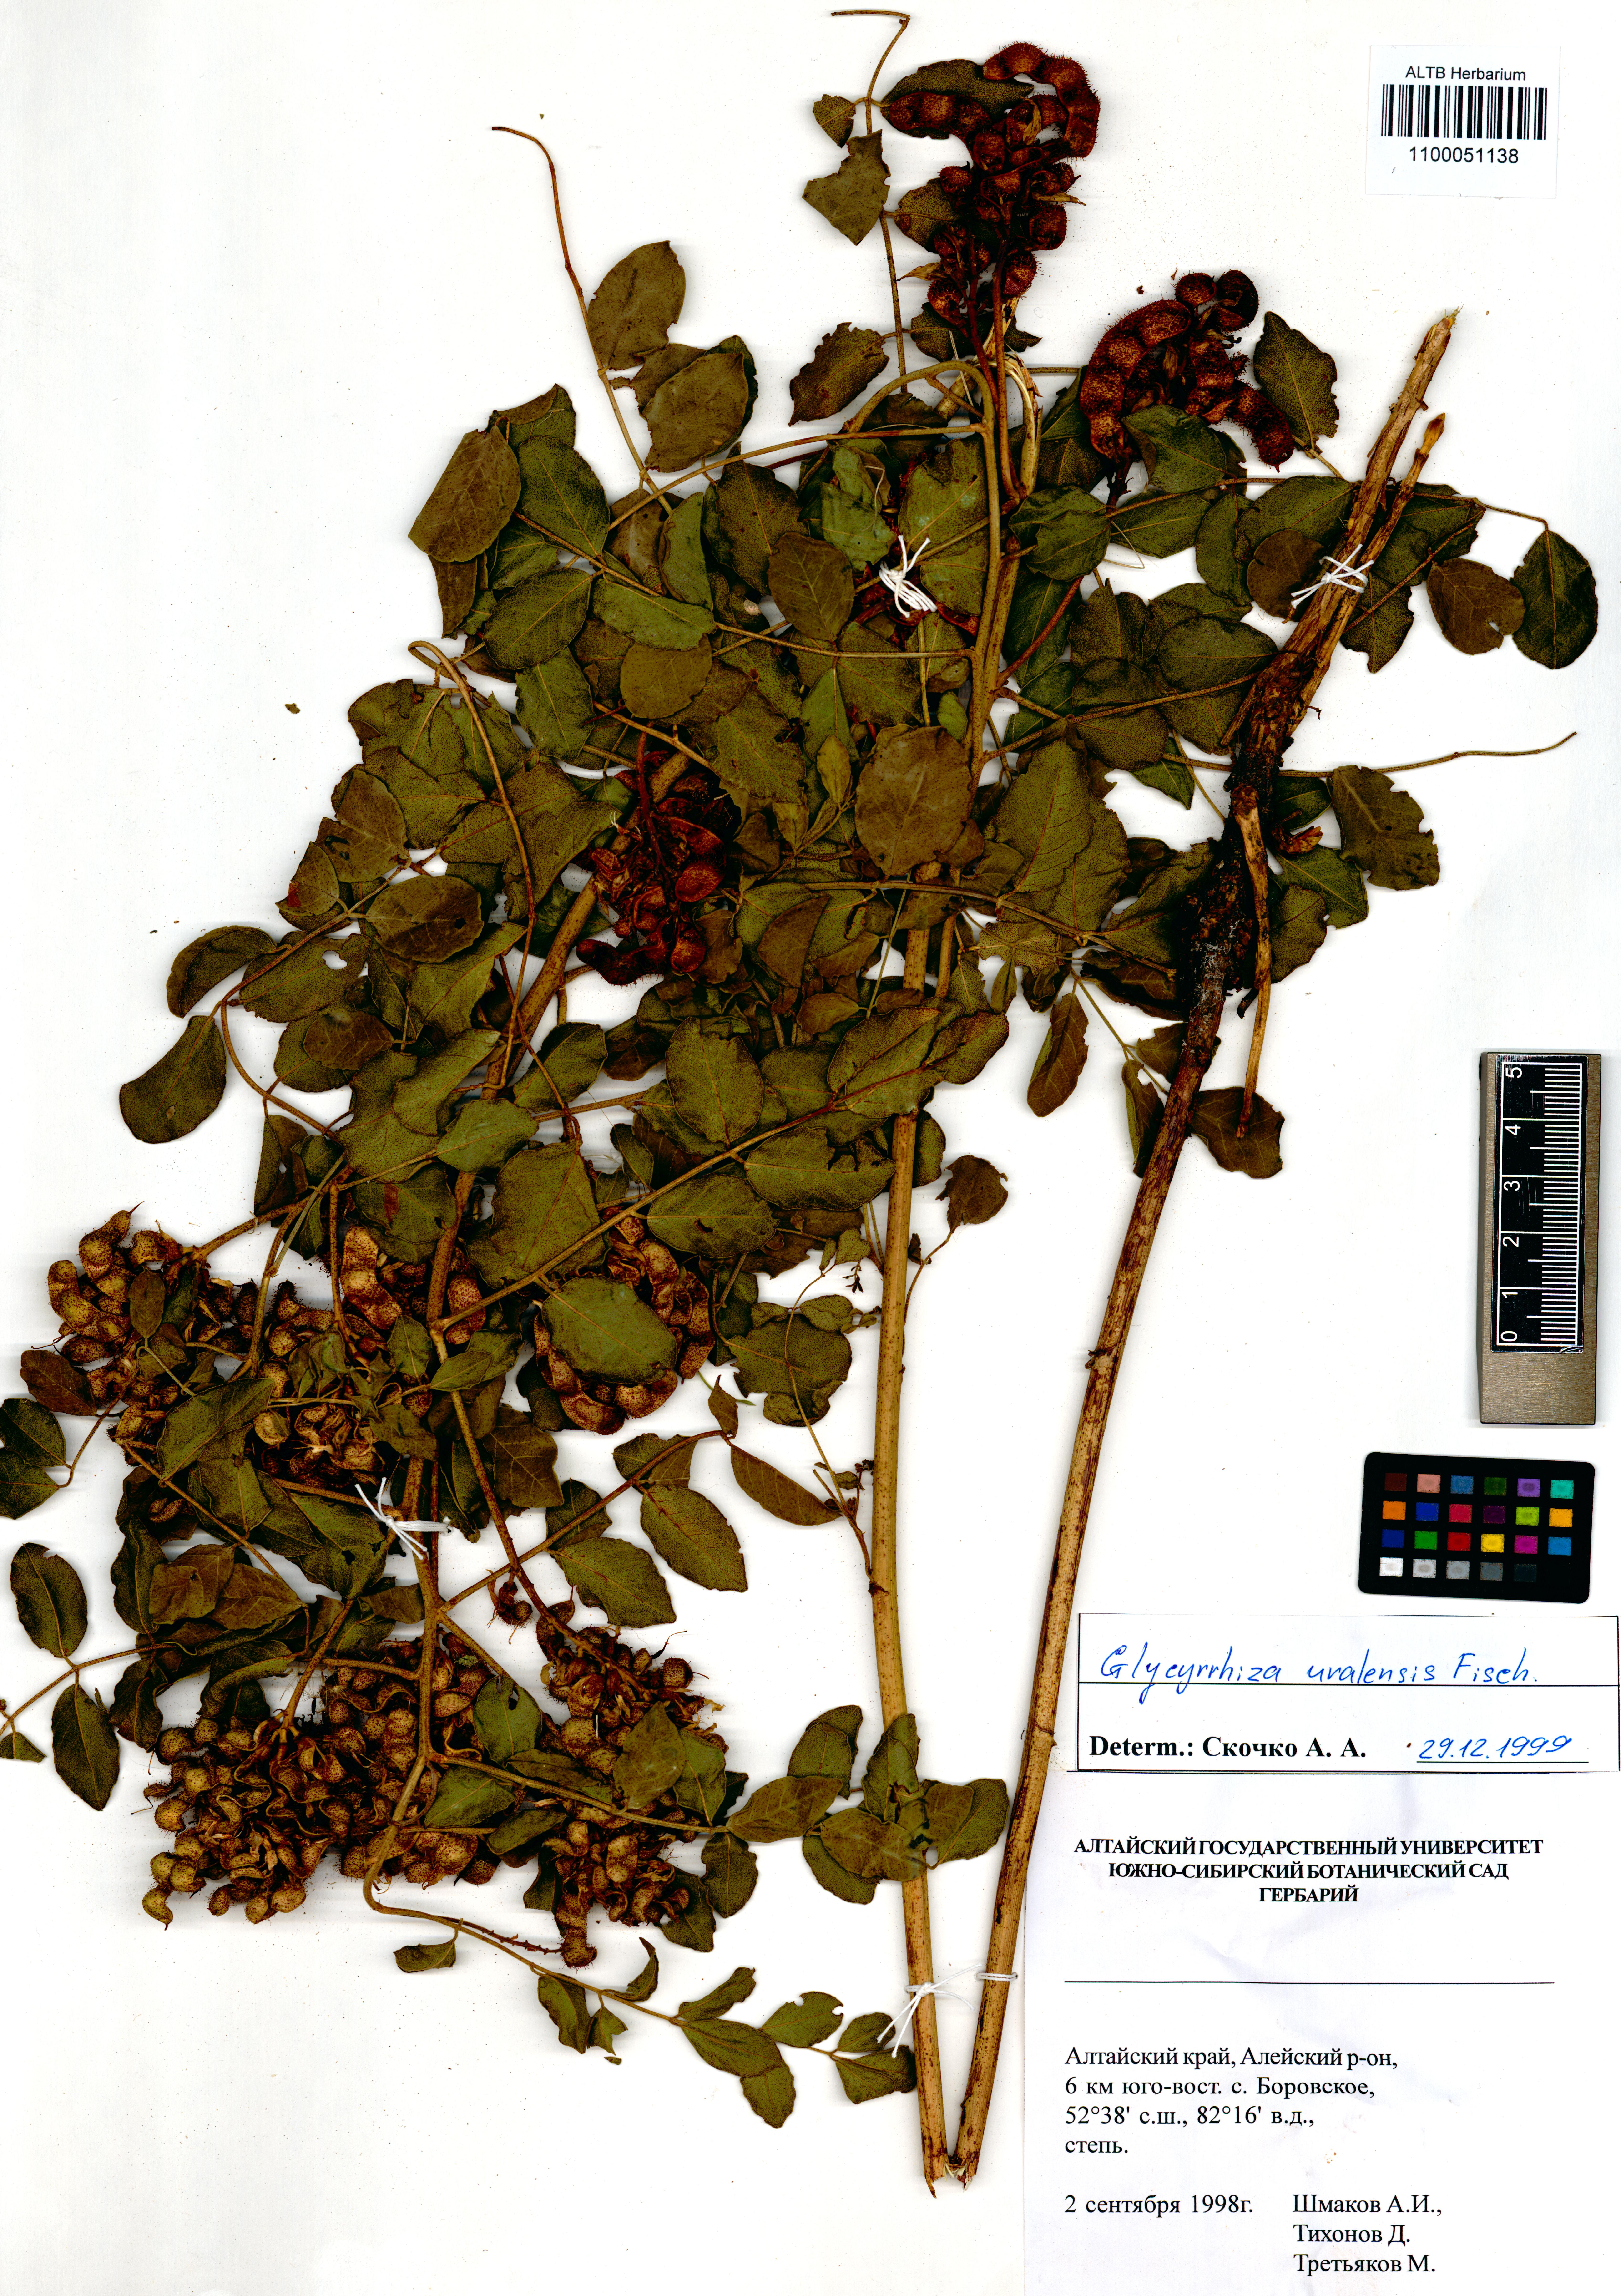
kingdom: Plantae
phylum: Tracheophyta
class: Magnoliopsida
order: Fabales
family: Fabaceae
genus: Glycyrrhiza
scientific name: Glycyrrhiza uralensis
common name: Chinese licorice
